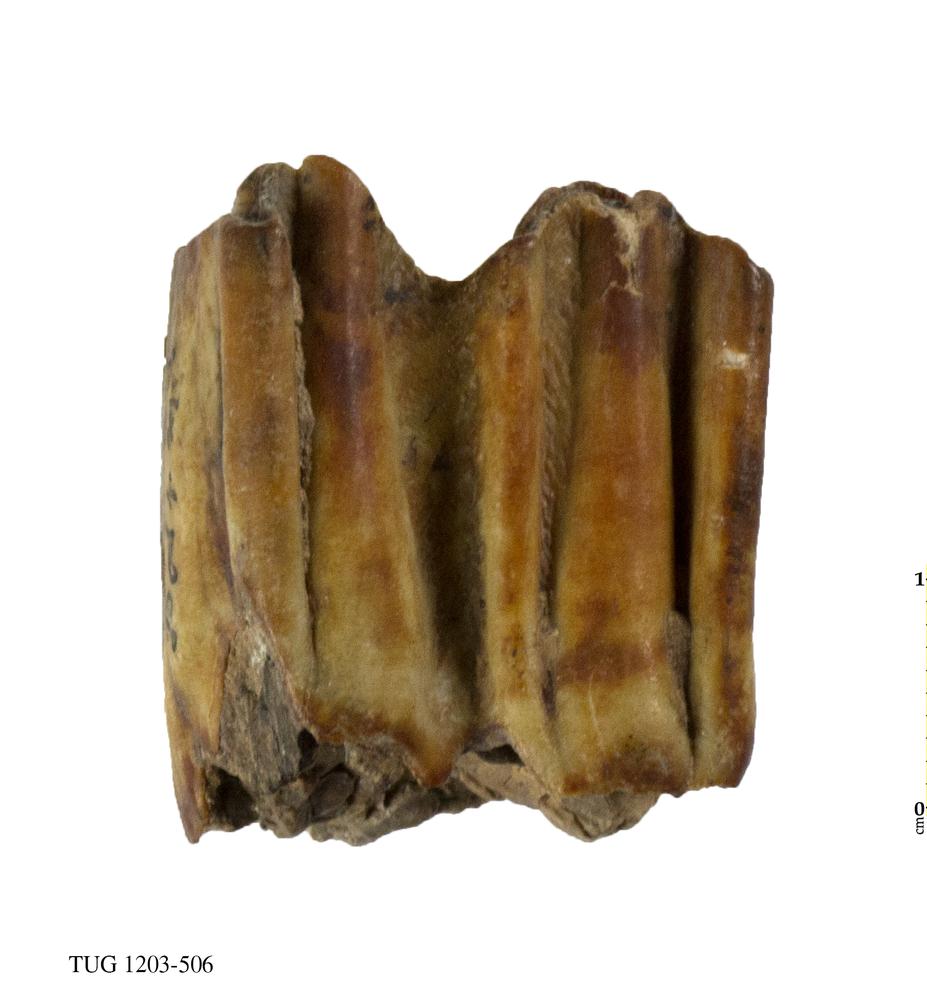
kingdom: Animalia
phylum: Chordata
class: Mammalia
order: Artiodactyla
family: Bovidae
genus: Bos
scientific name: Bos
